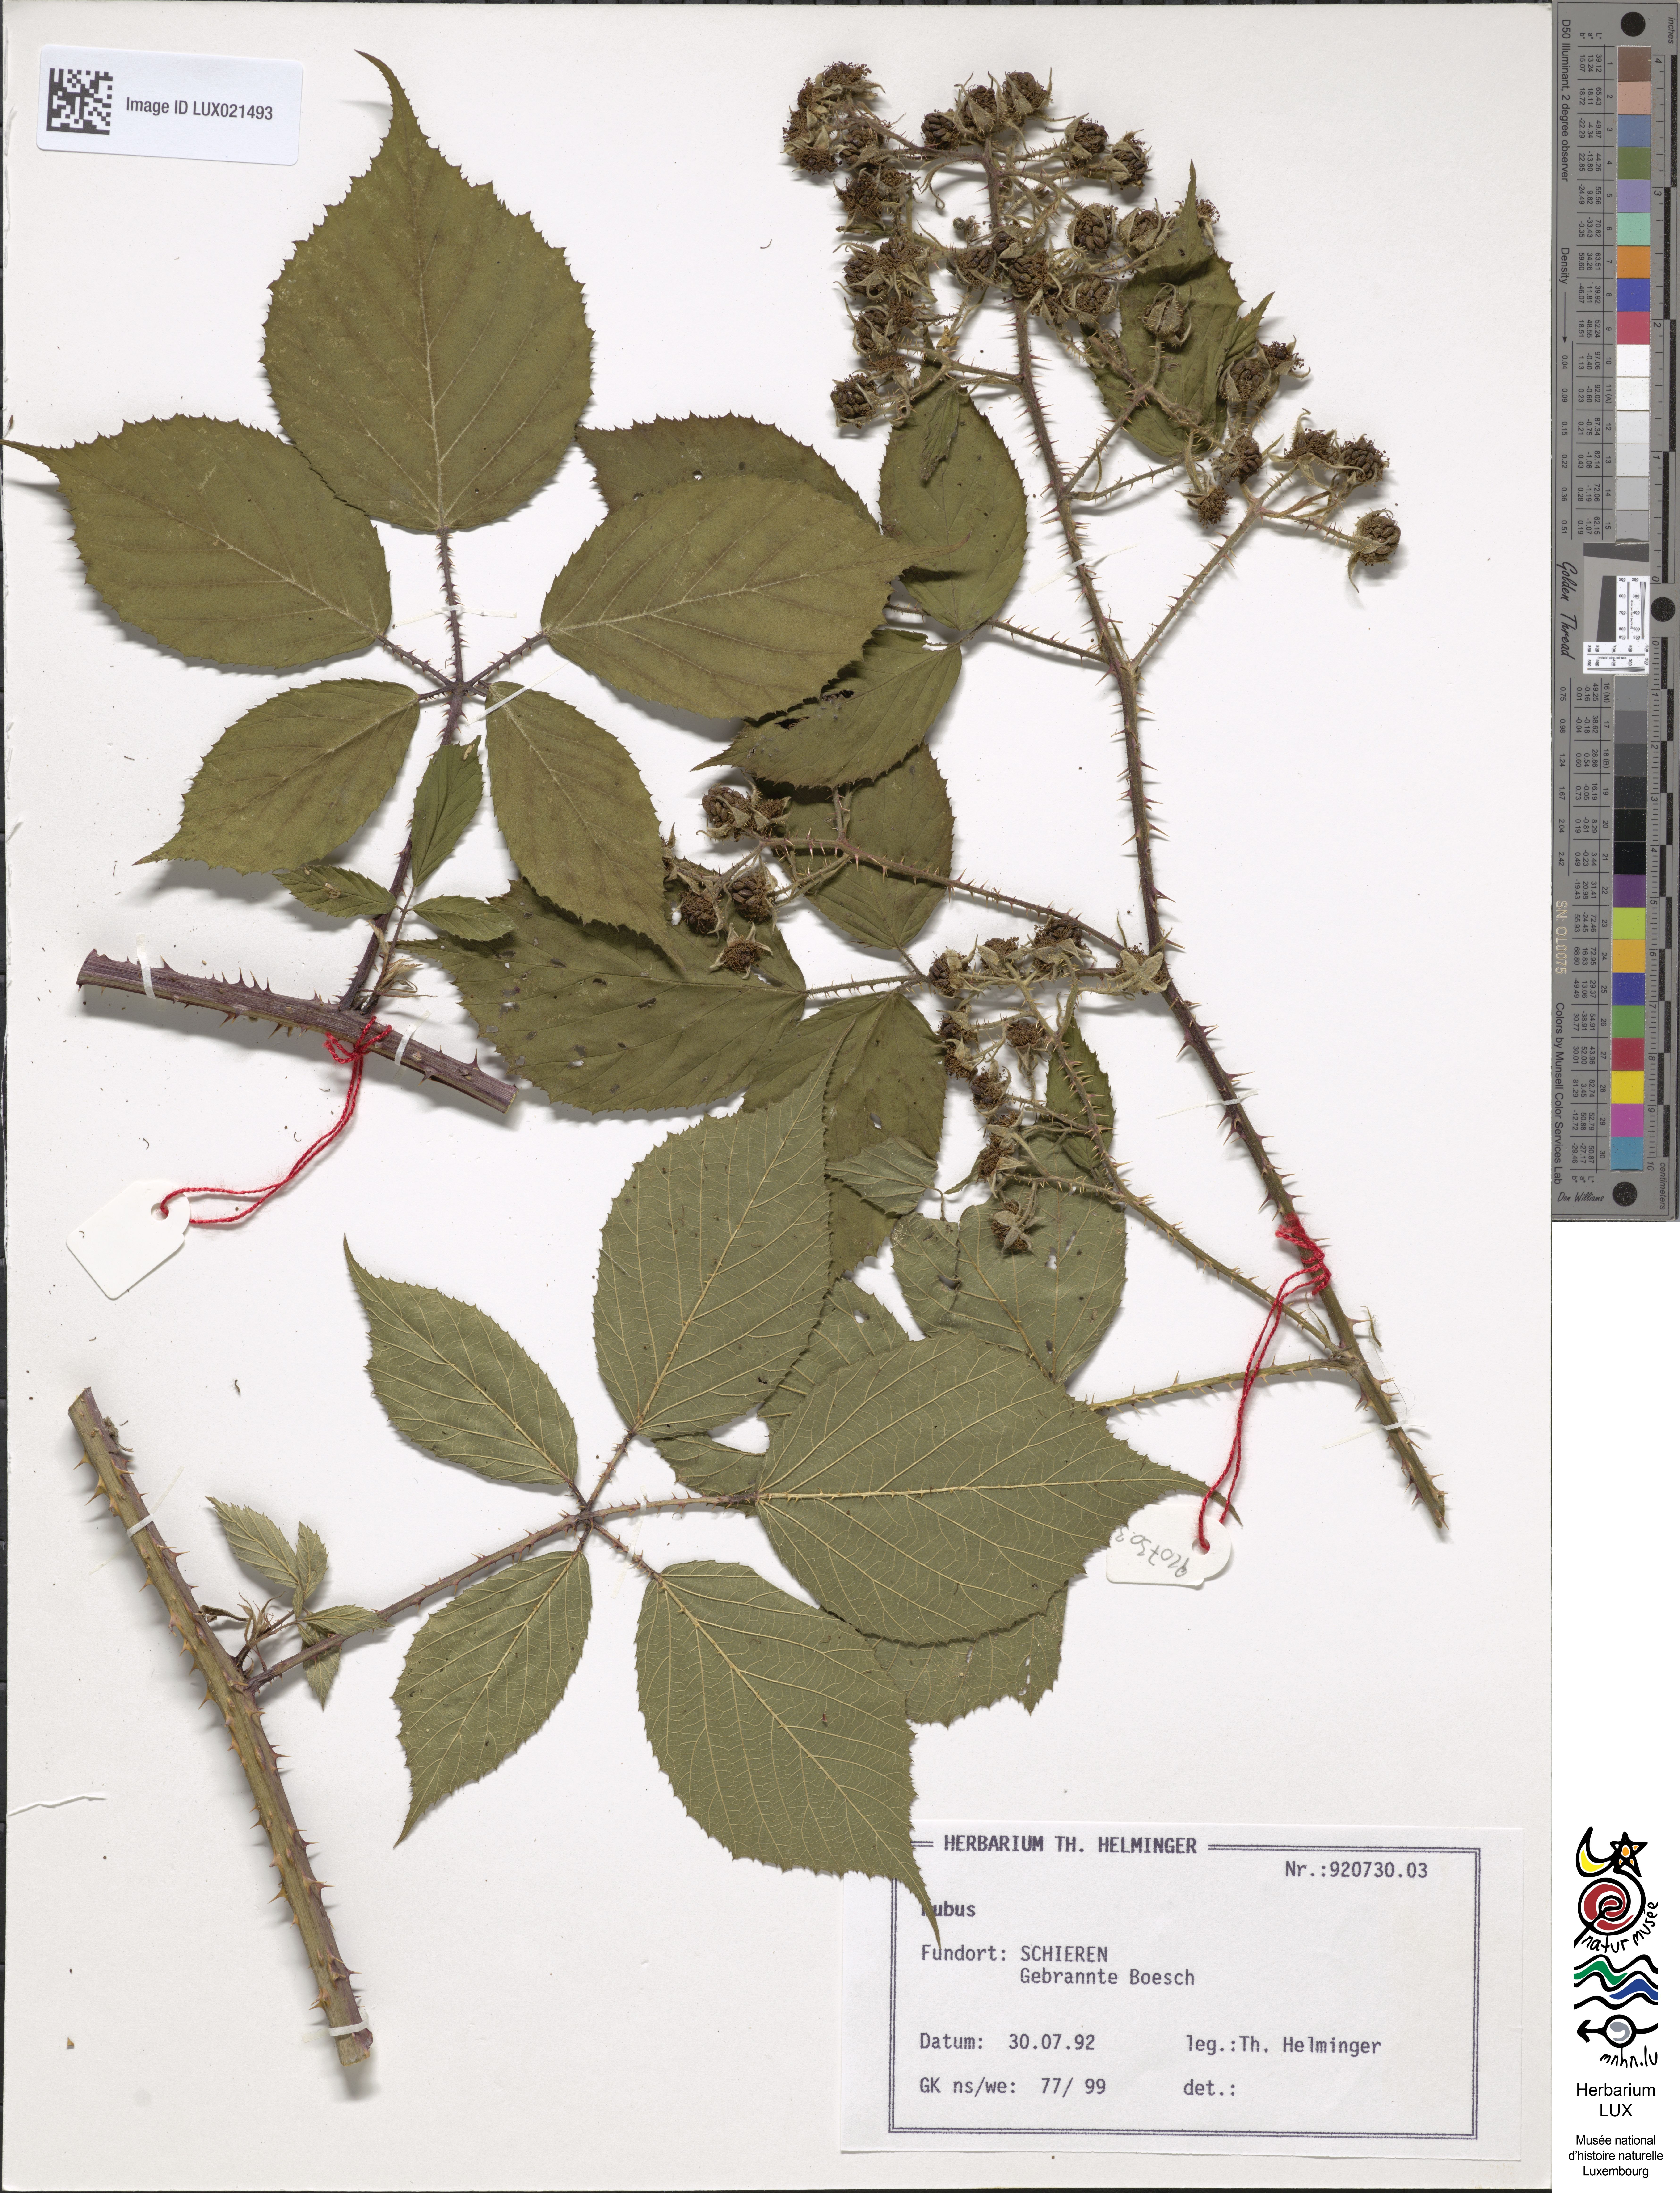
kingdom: Plantae
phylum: Tracheophyta
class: Magnoliopsida
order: Rosales
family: Rosaceae
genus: Rubus
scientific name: Rubus
